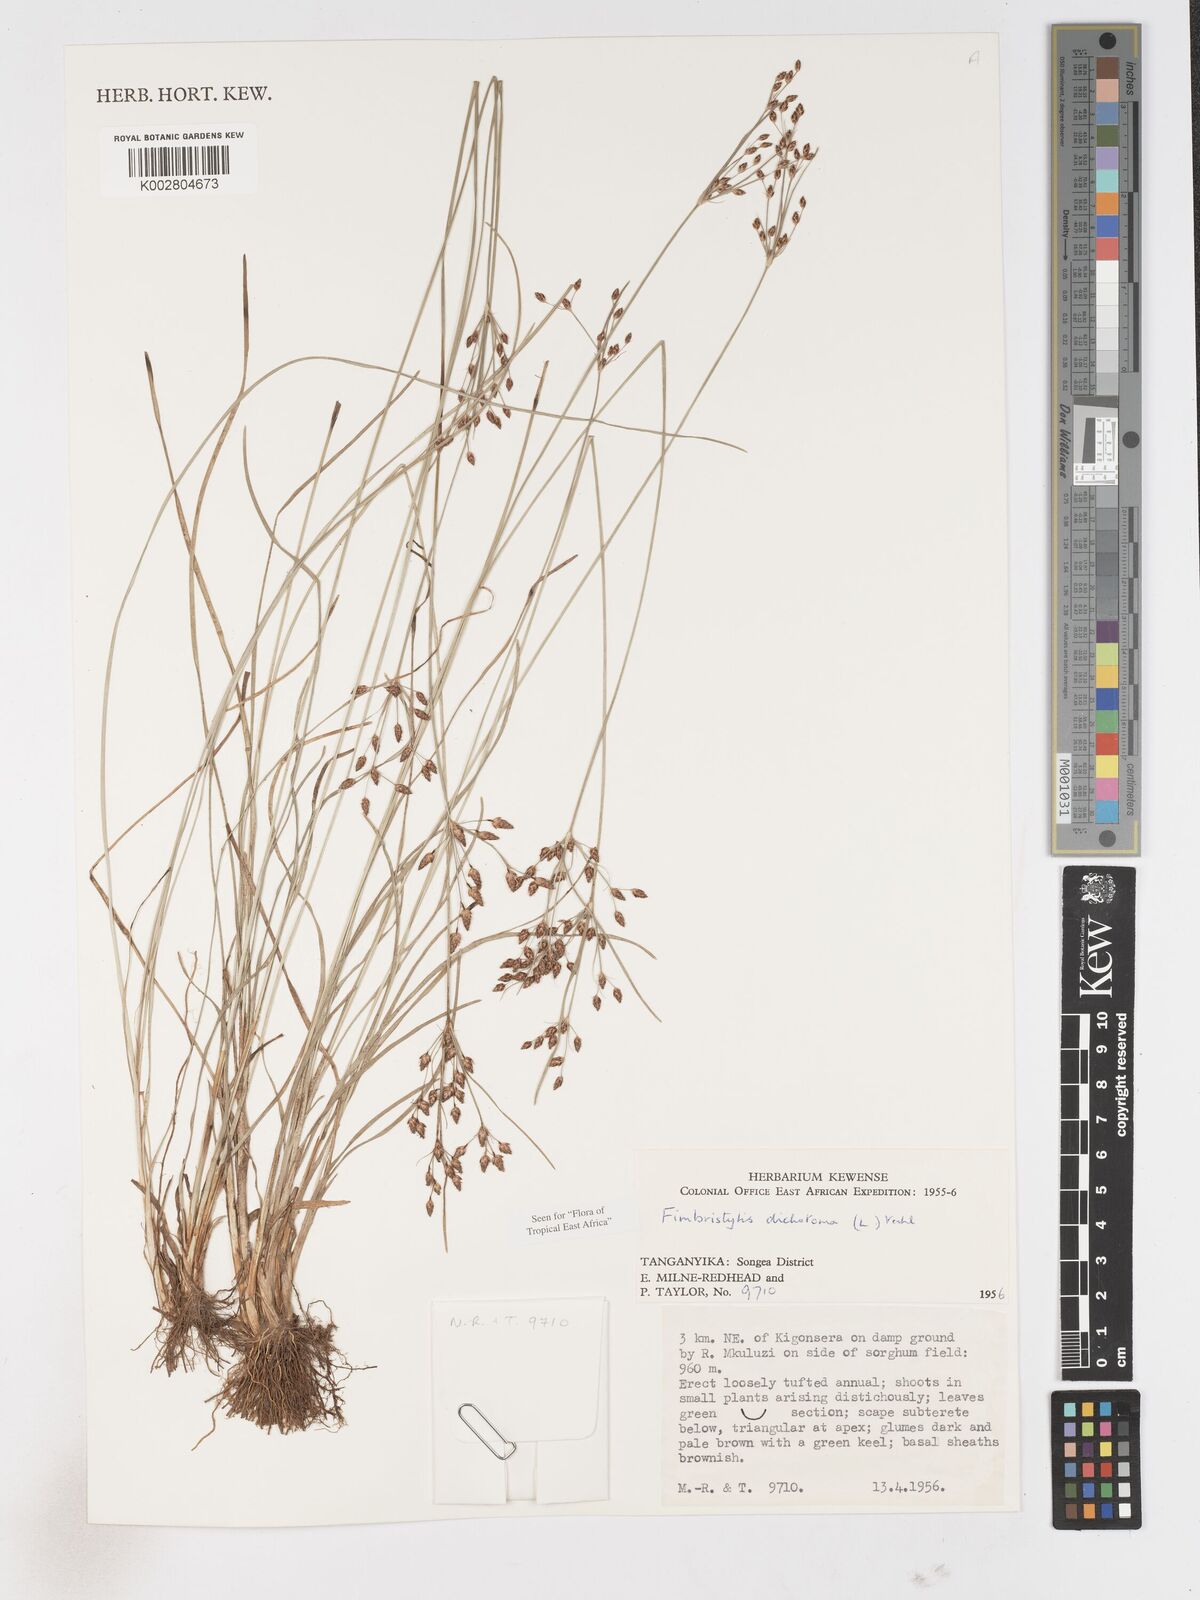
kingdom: Plantae
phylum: Tracheophyta
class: Liliopsida
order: Poales
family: Cyperaceae
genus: Fimbristylis
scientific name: Fimbristylis dichotoma
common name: Forked fimbry
